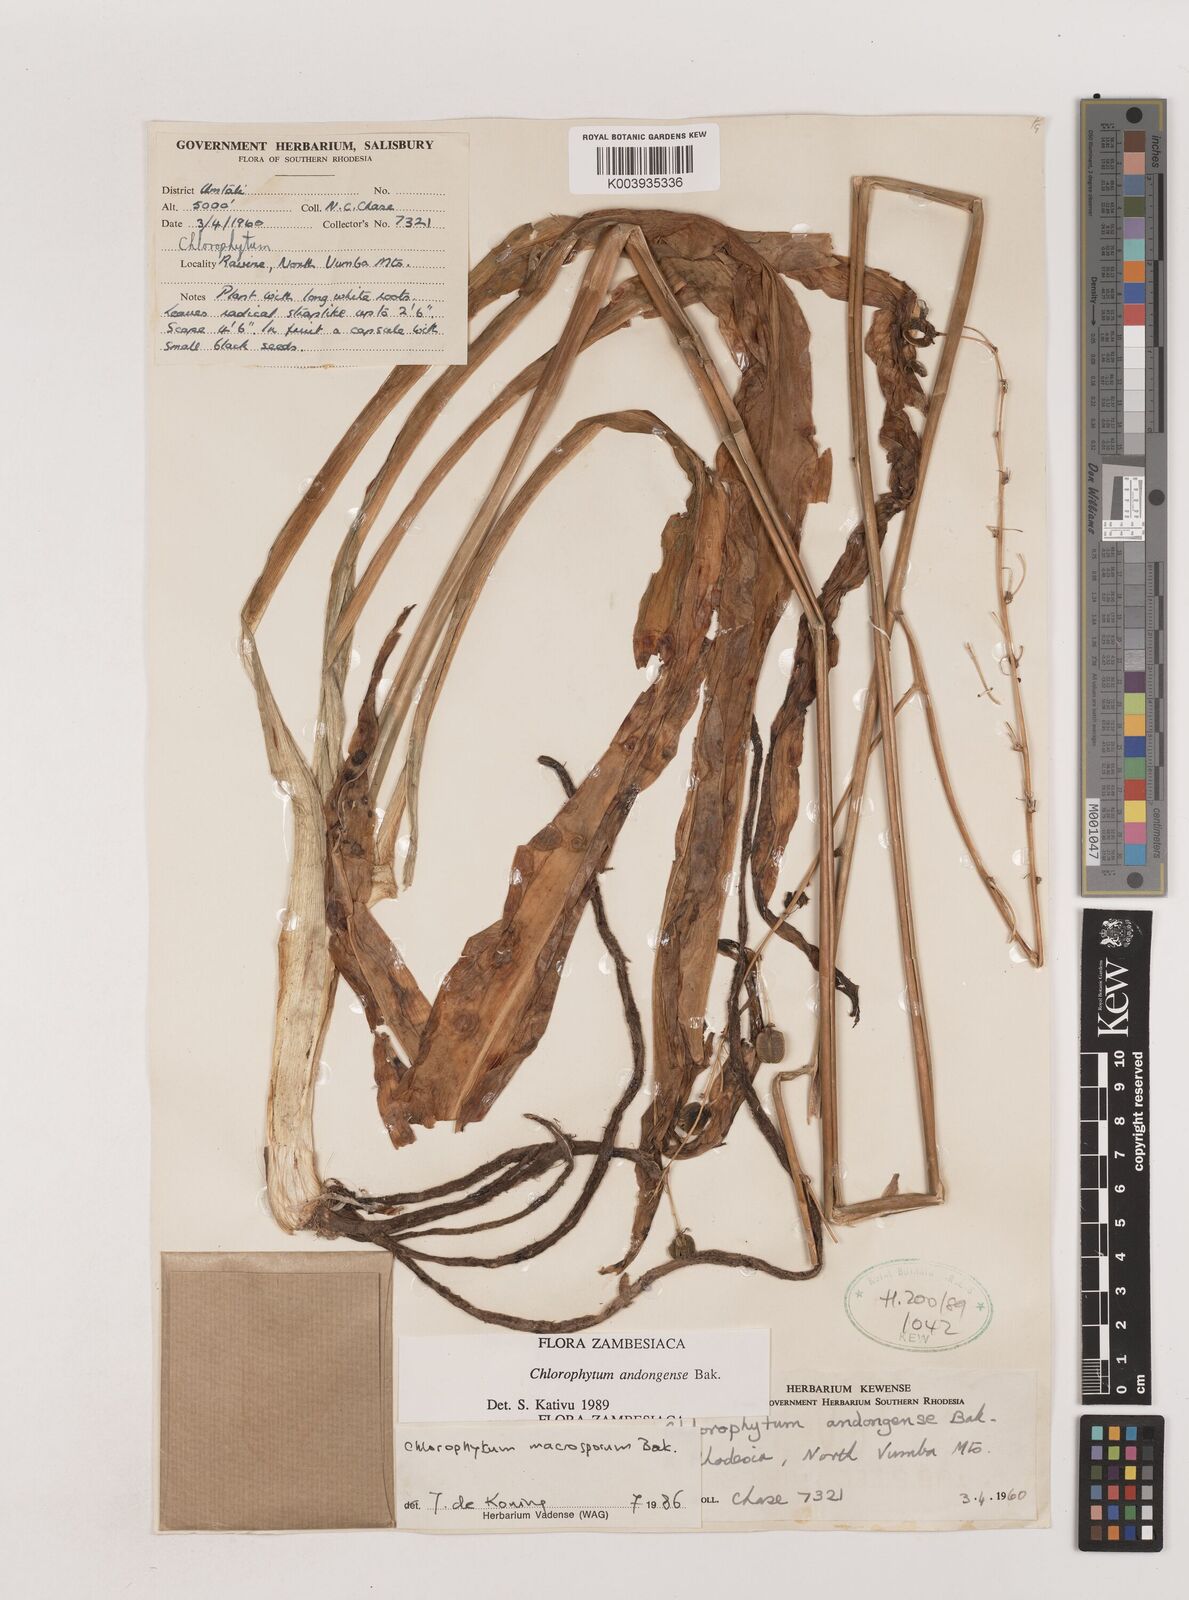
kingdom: Plantae
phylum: Tracheophyta
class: Liliopsida
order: Asparagales
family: Asparagaceae
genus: Chlorophytum
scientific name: Chlorophytum andongense
